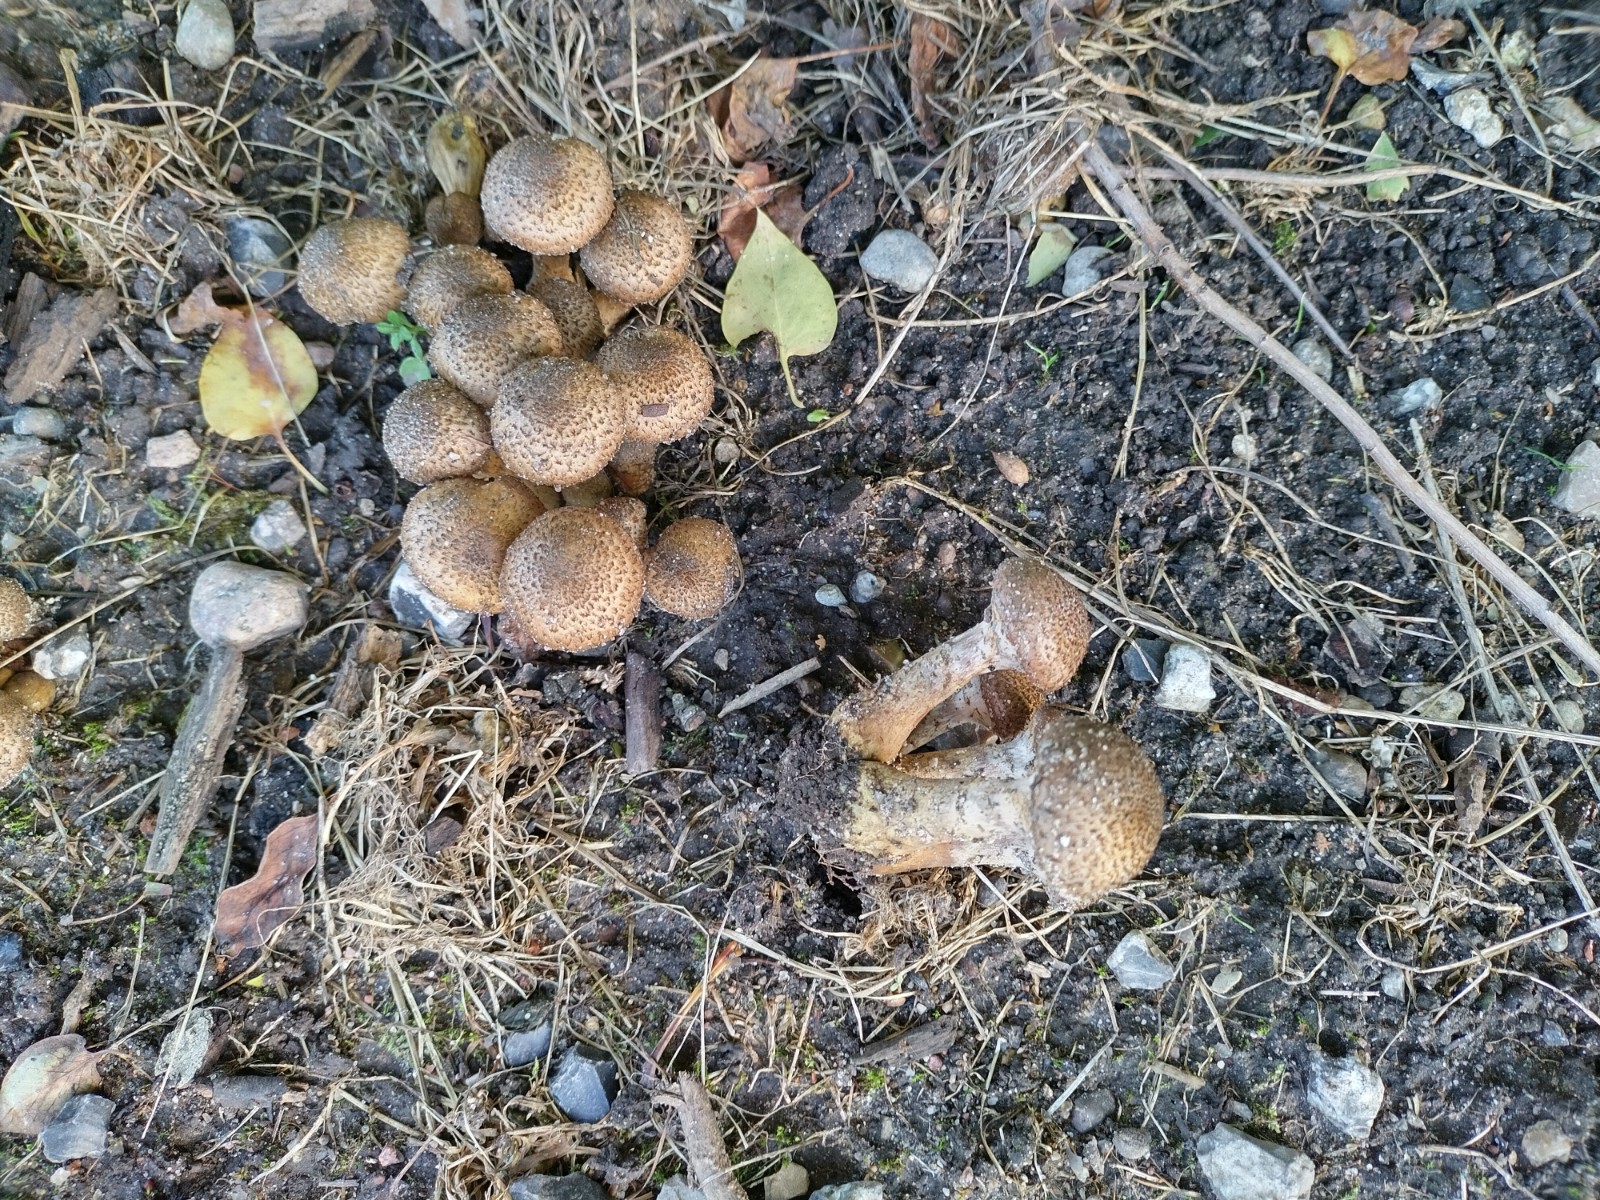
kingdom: Fungi
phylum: Basidiomycota
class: Agaricomycetes
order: Agaricales
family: Physalacriaceae
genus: Armillaria
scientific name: Armillaria lutea
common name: køllestokket honningsvamp
